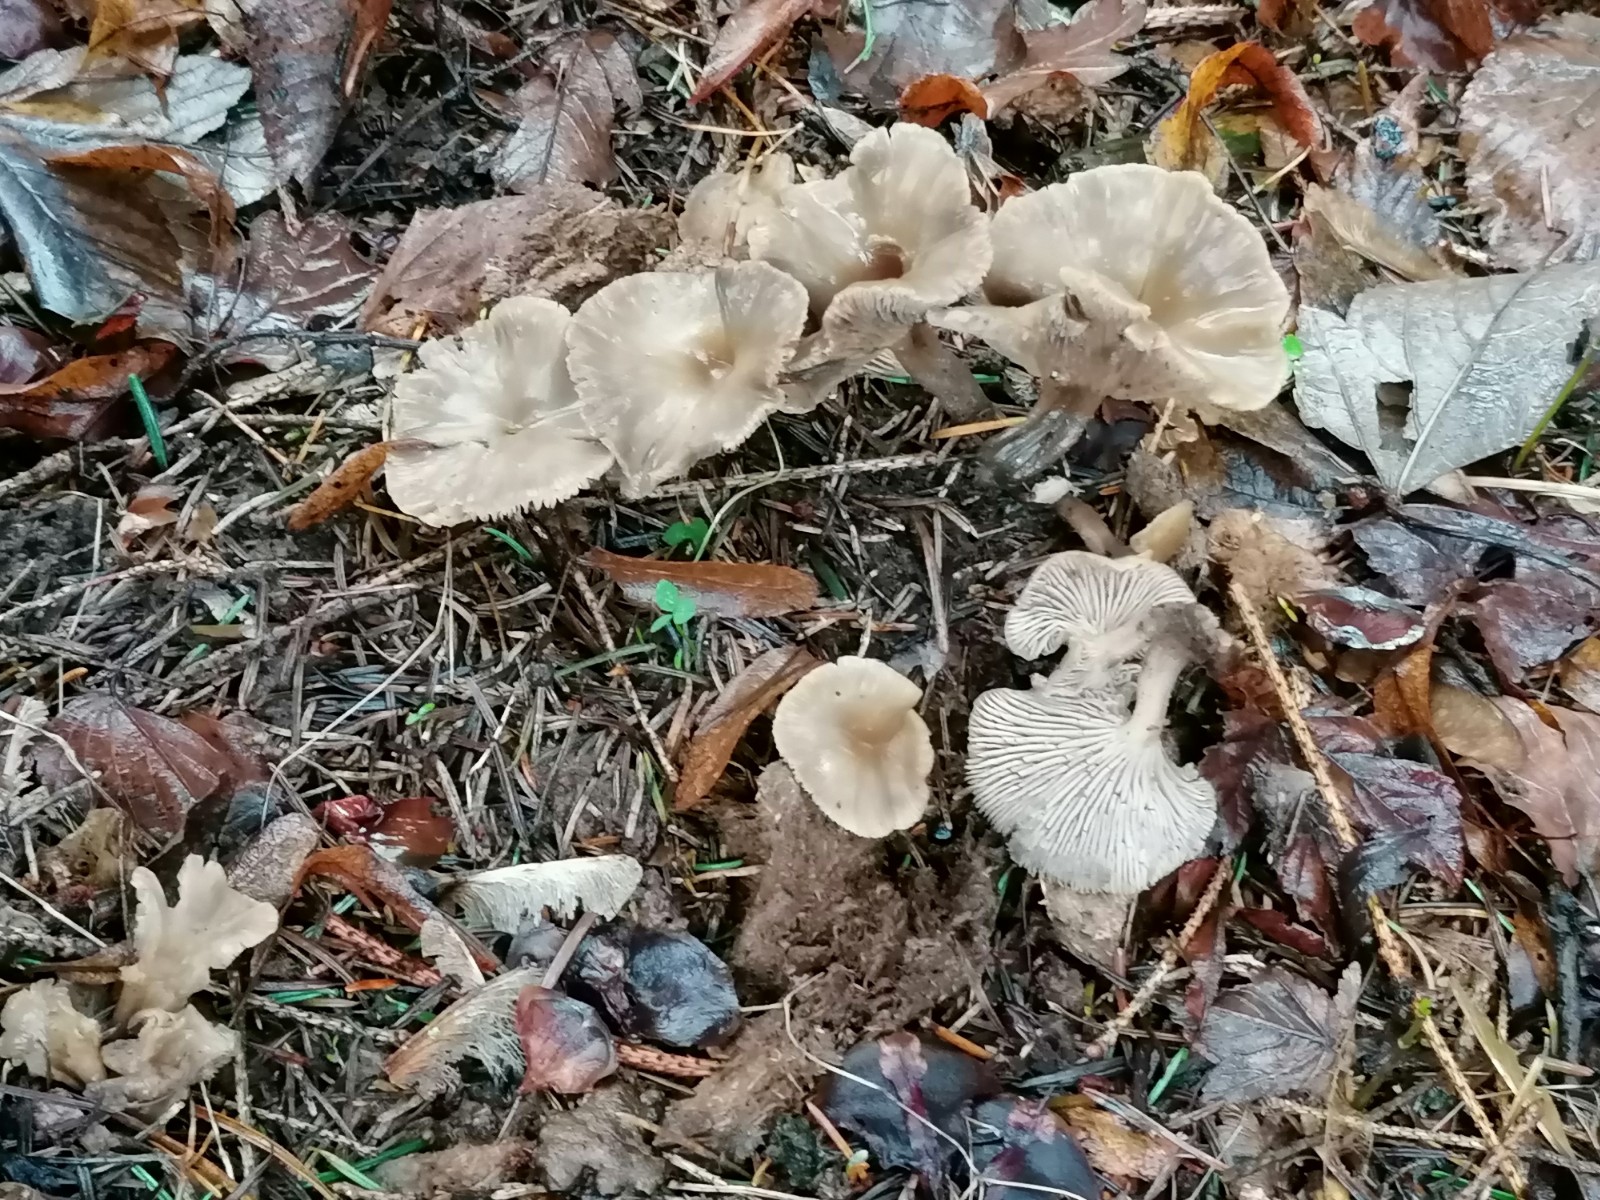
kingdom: Fungi
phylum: Basidiomycota
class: Agaricomycetes
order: Agaricales
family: Tricholomataceae
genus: Clitocybe
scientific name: Clitocybe amarescens
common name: gødnings-tragthat
